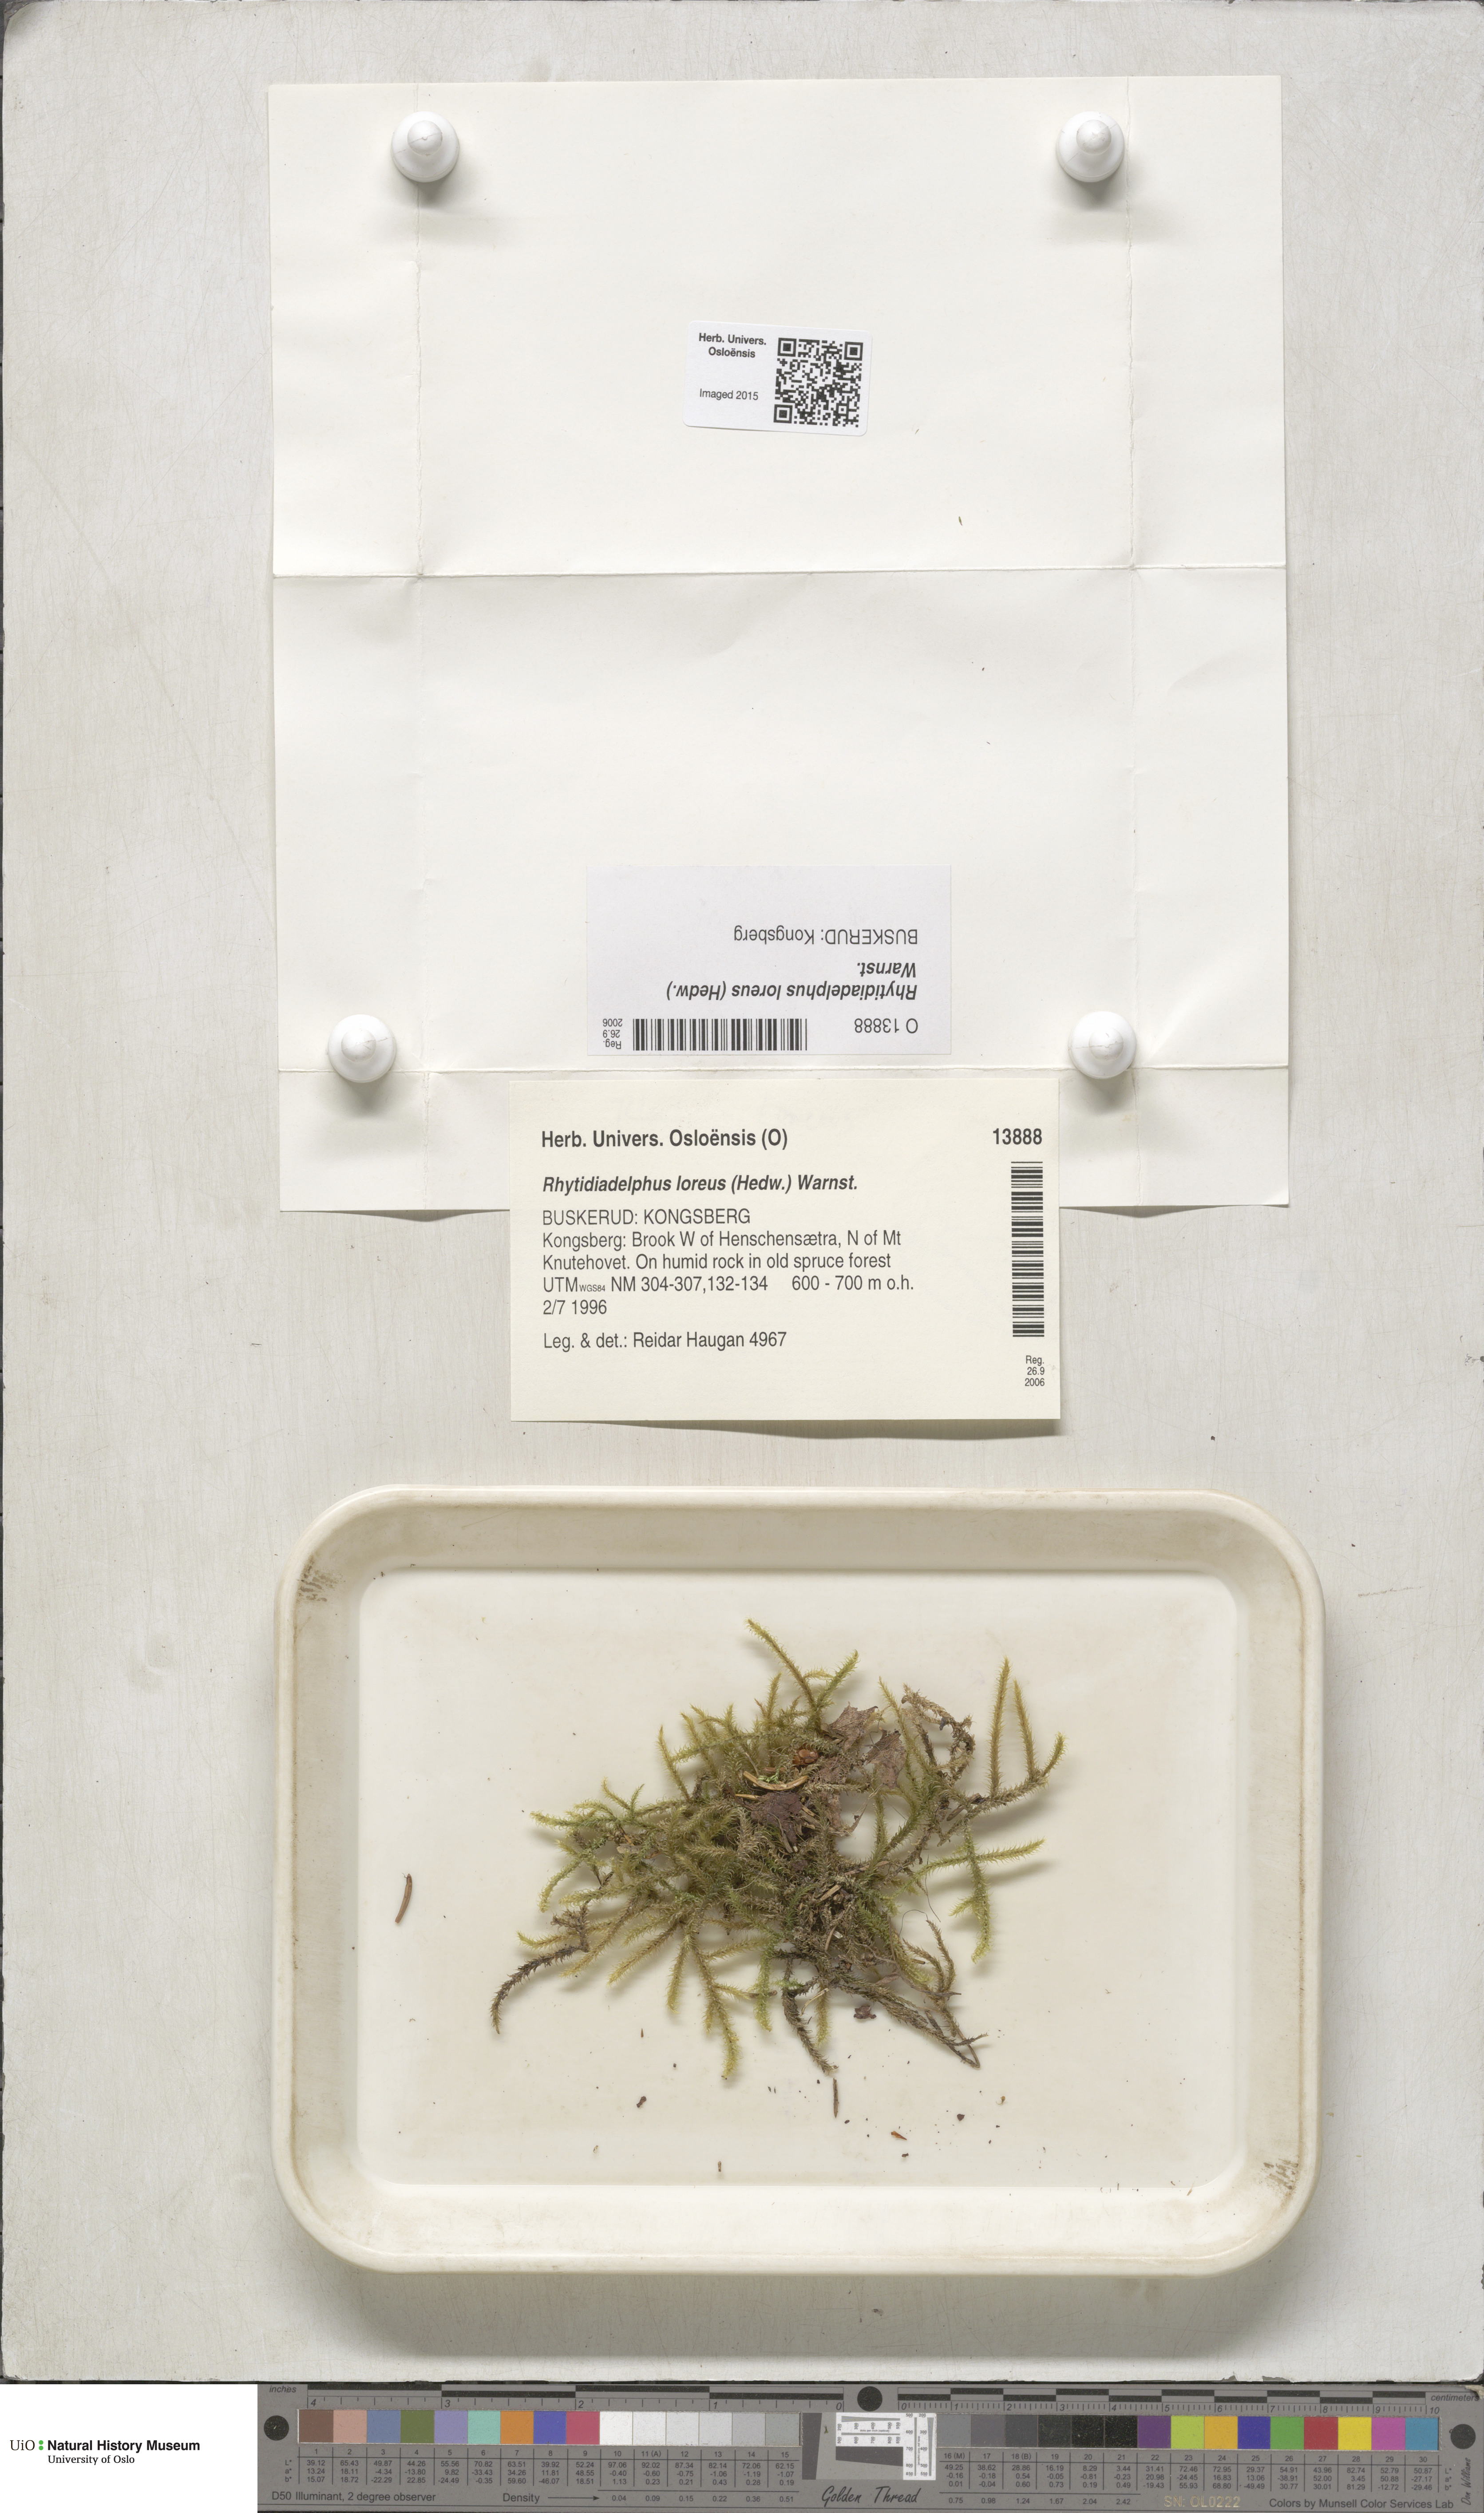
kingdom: Plantae
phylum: Bryophyta
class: Bryopsida
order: Hypnales
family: Hylocomiaceae
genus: Rhytidiadelphus
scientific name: Rhytidiadelphus loreus
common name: Lanky moss
